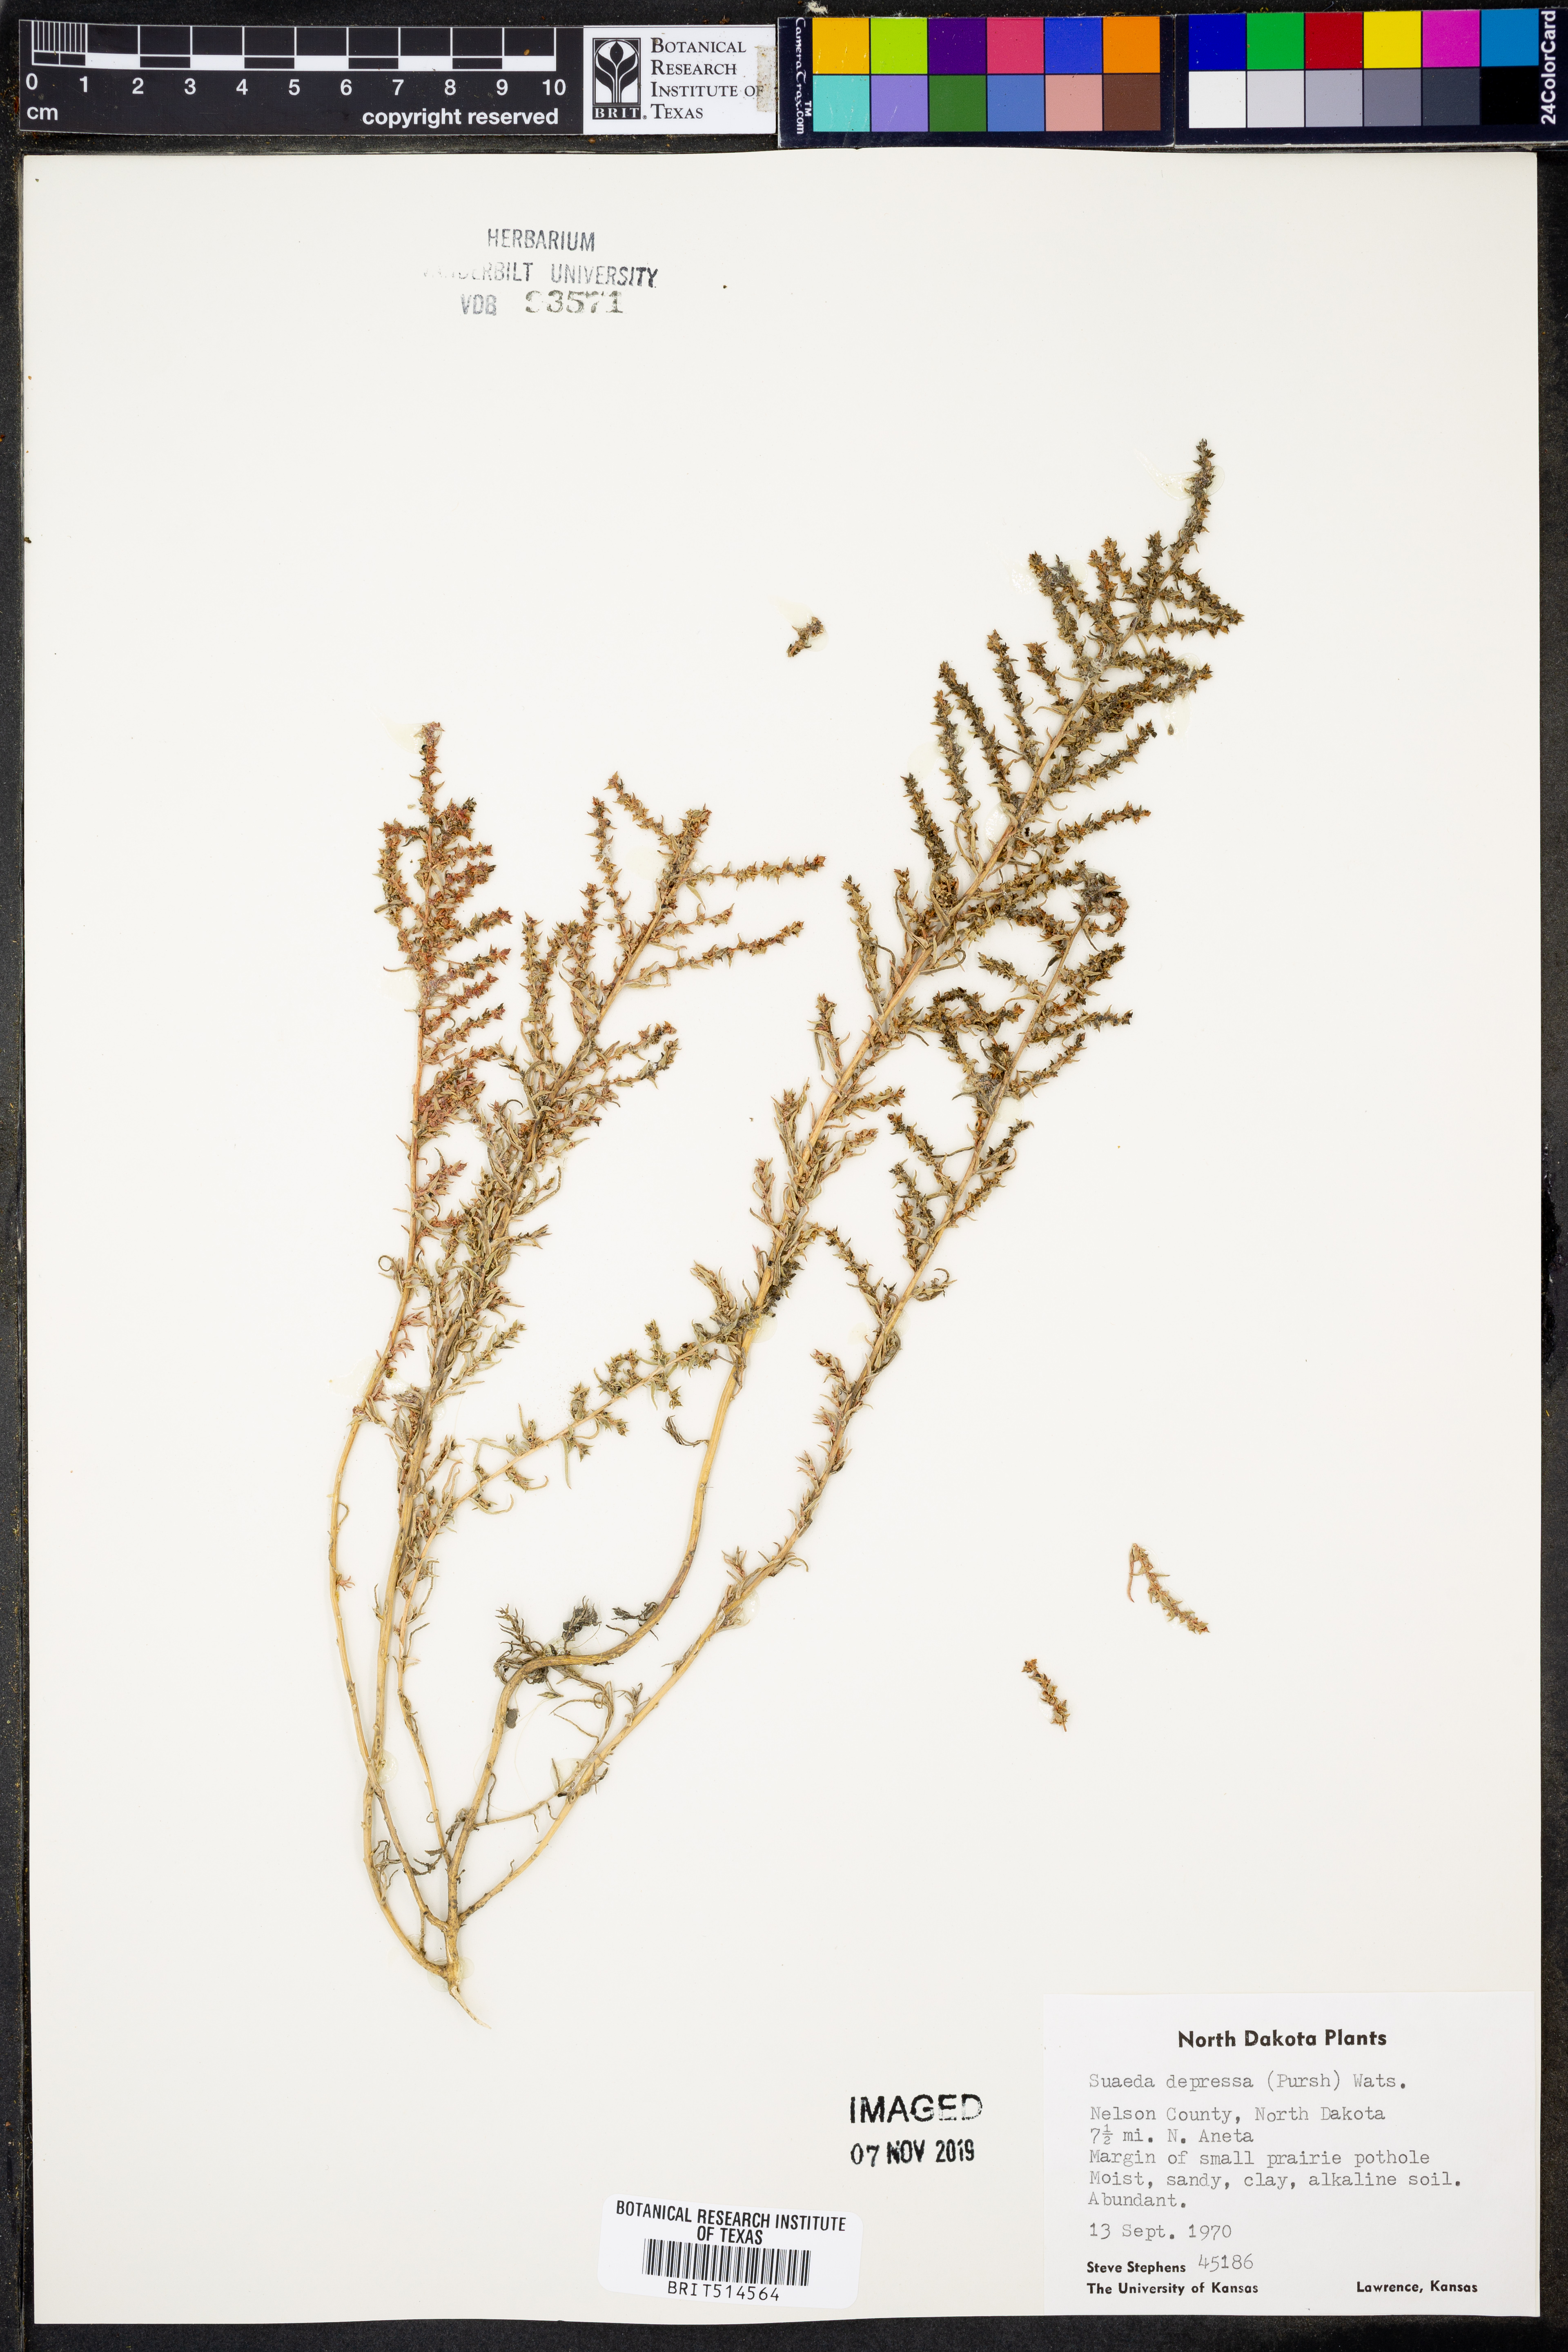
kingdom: Plantae
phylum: Tracheophyta
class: Magnoliopsida
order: Caryophyllales
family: Amaranthaceae
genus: Suaeda
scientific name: Suaeda calceoliformis
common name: Pursh's seepweed
